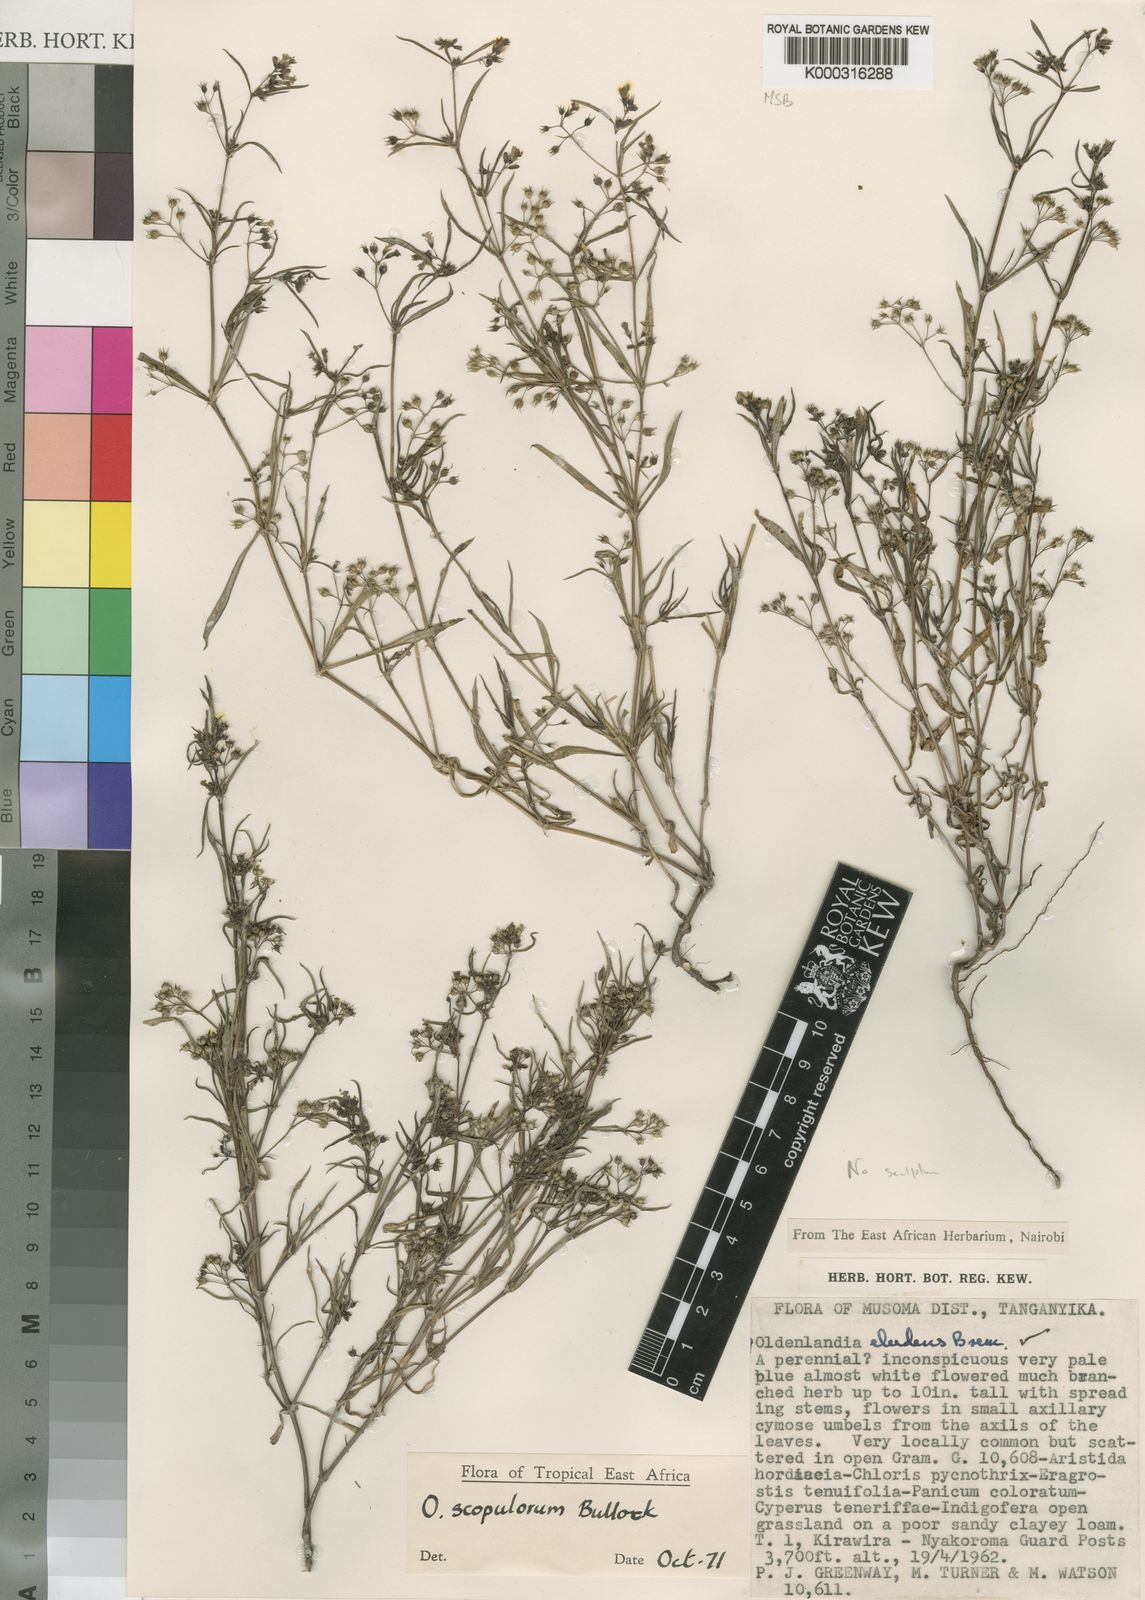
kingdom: Plantae
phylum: Tracheophyta
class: Magnoliopsida
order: Gentianales
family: Rubiaceae
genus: Oldenlandia
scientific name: Oldenlandia scopulorum
